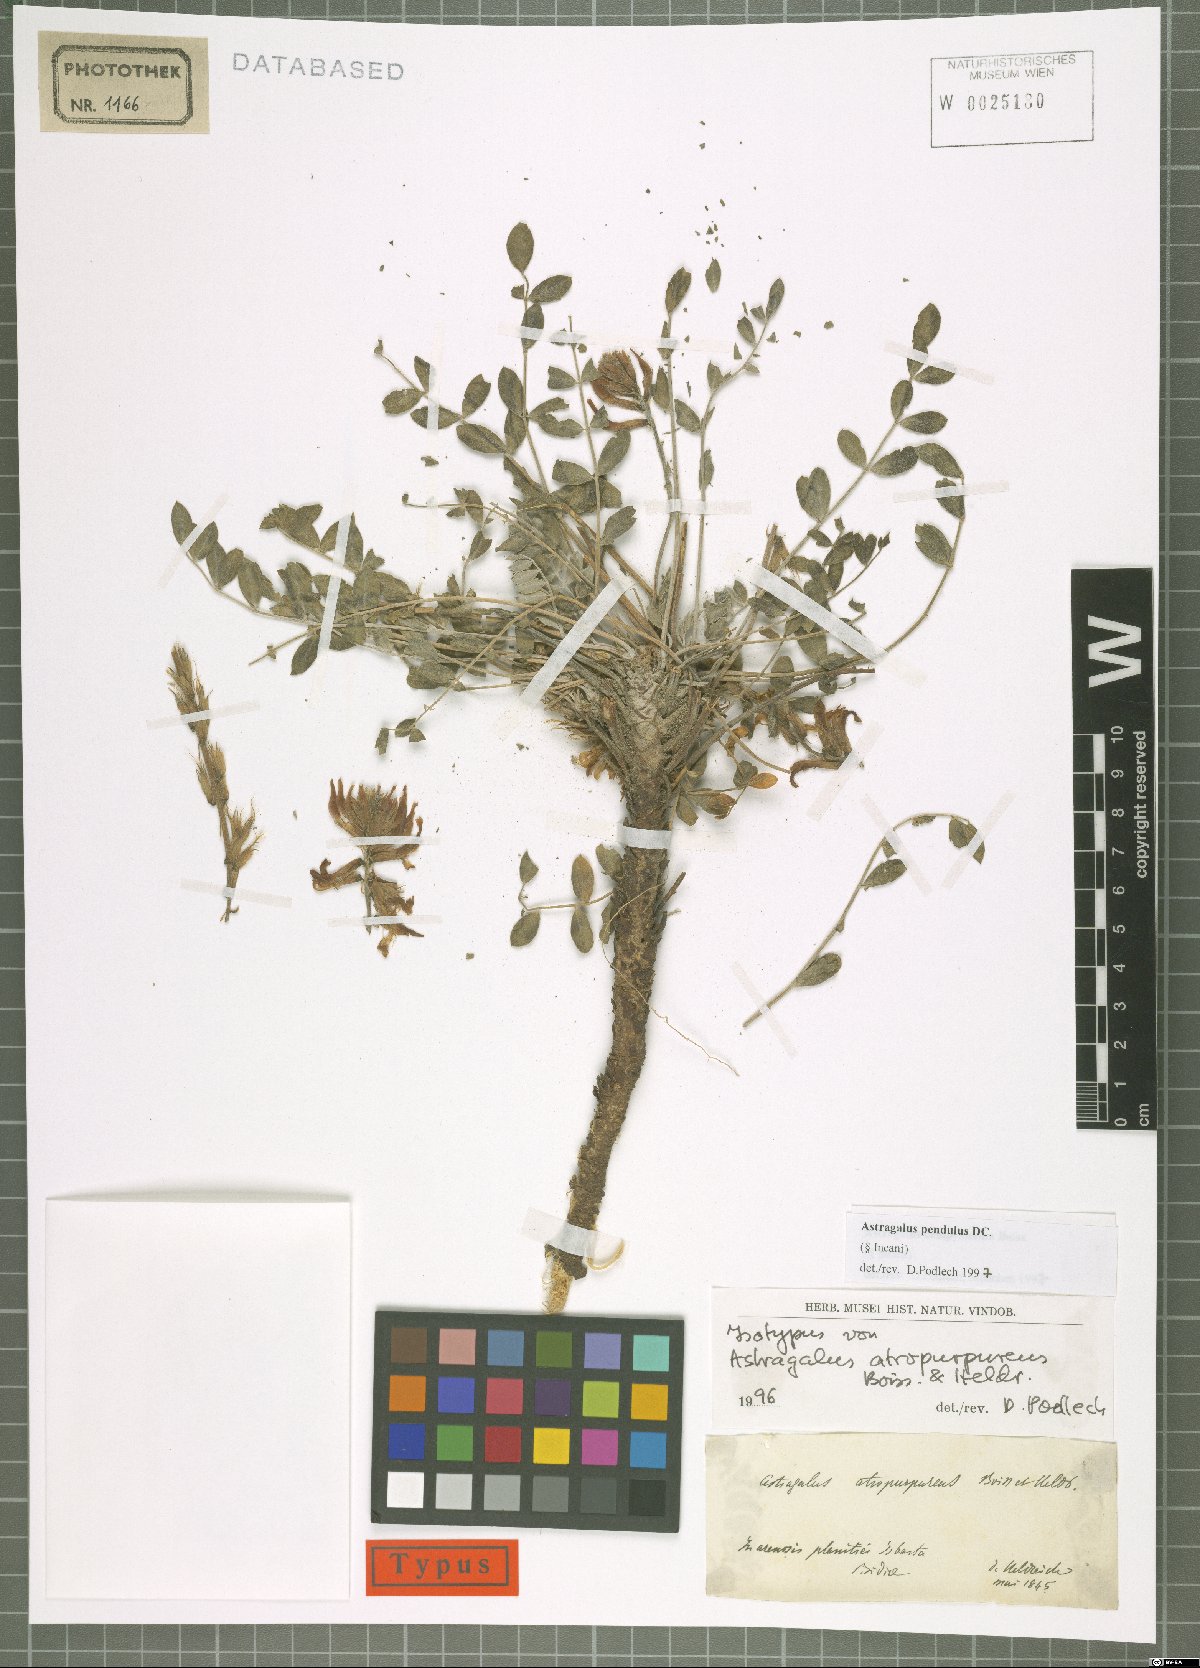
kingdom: Plantae
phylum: Tracheophyta
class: Magnoliopsida
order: Fabales
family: Fabaceae
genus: Astragalus
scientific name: Astragalus pendulus
